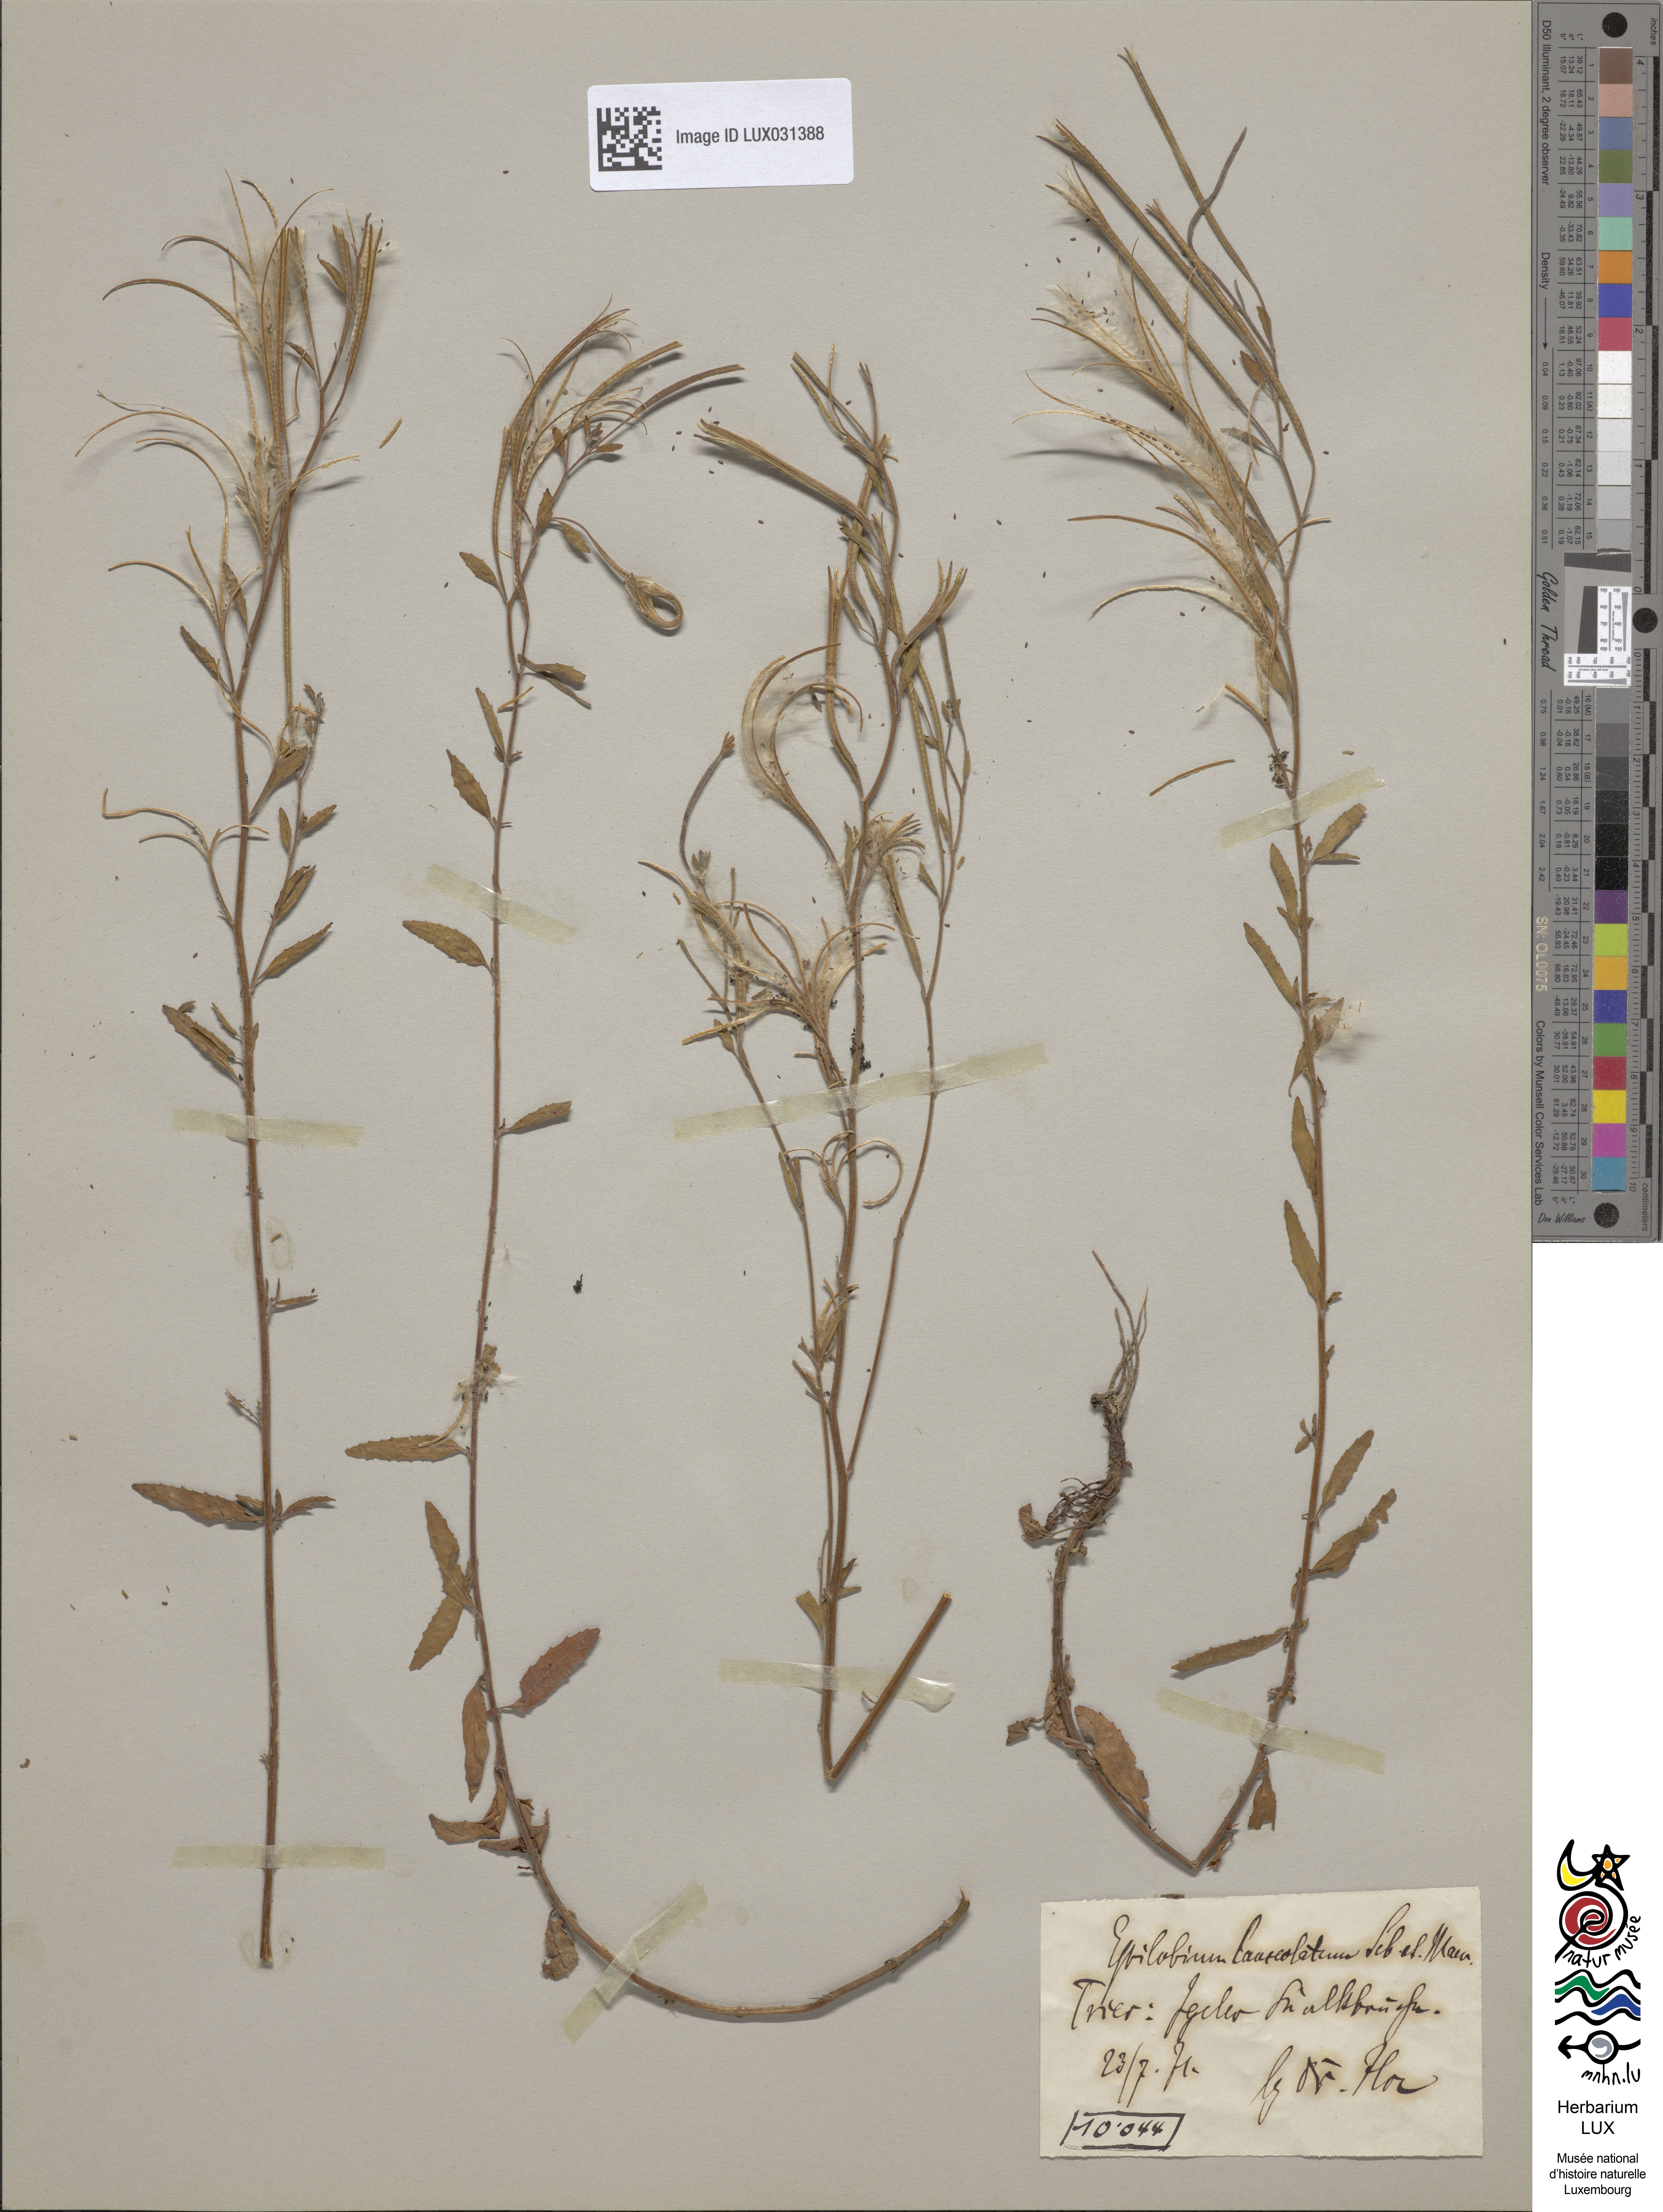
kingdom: Plantae
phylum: Tracheophyta
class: Magnoliopsida
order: Myrtales
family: Onagraceae
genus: Epilobium
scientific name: Epilobium lanceolatum
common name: Spear-leaved willowherb
